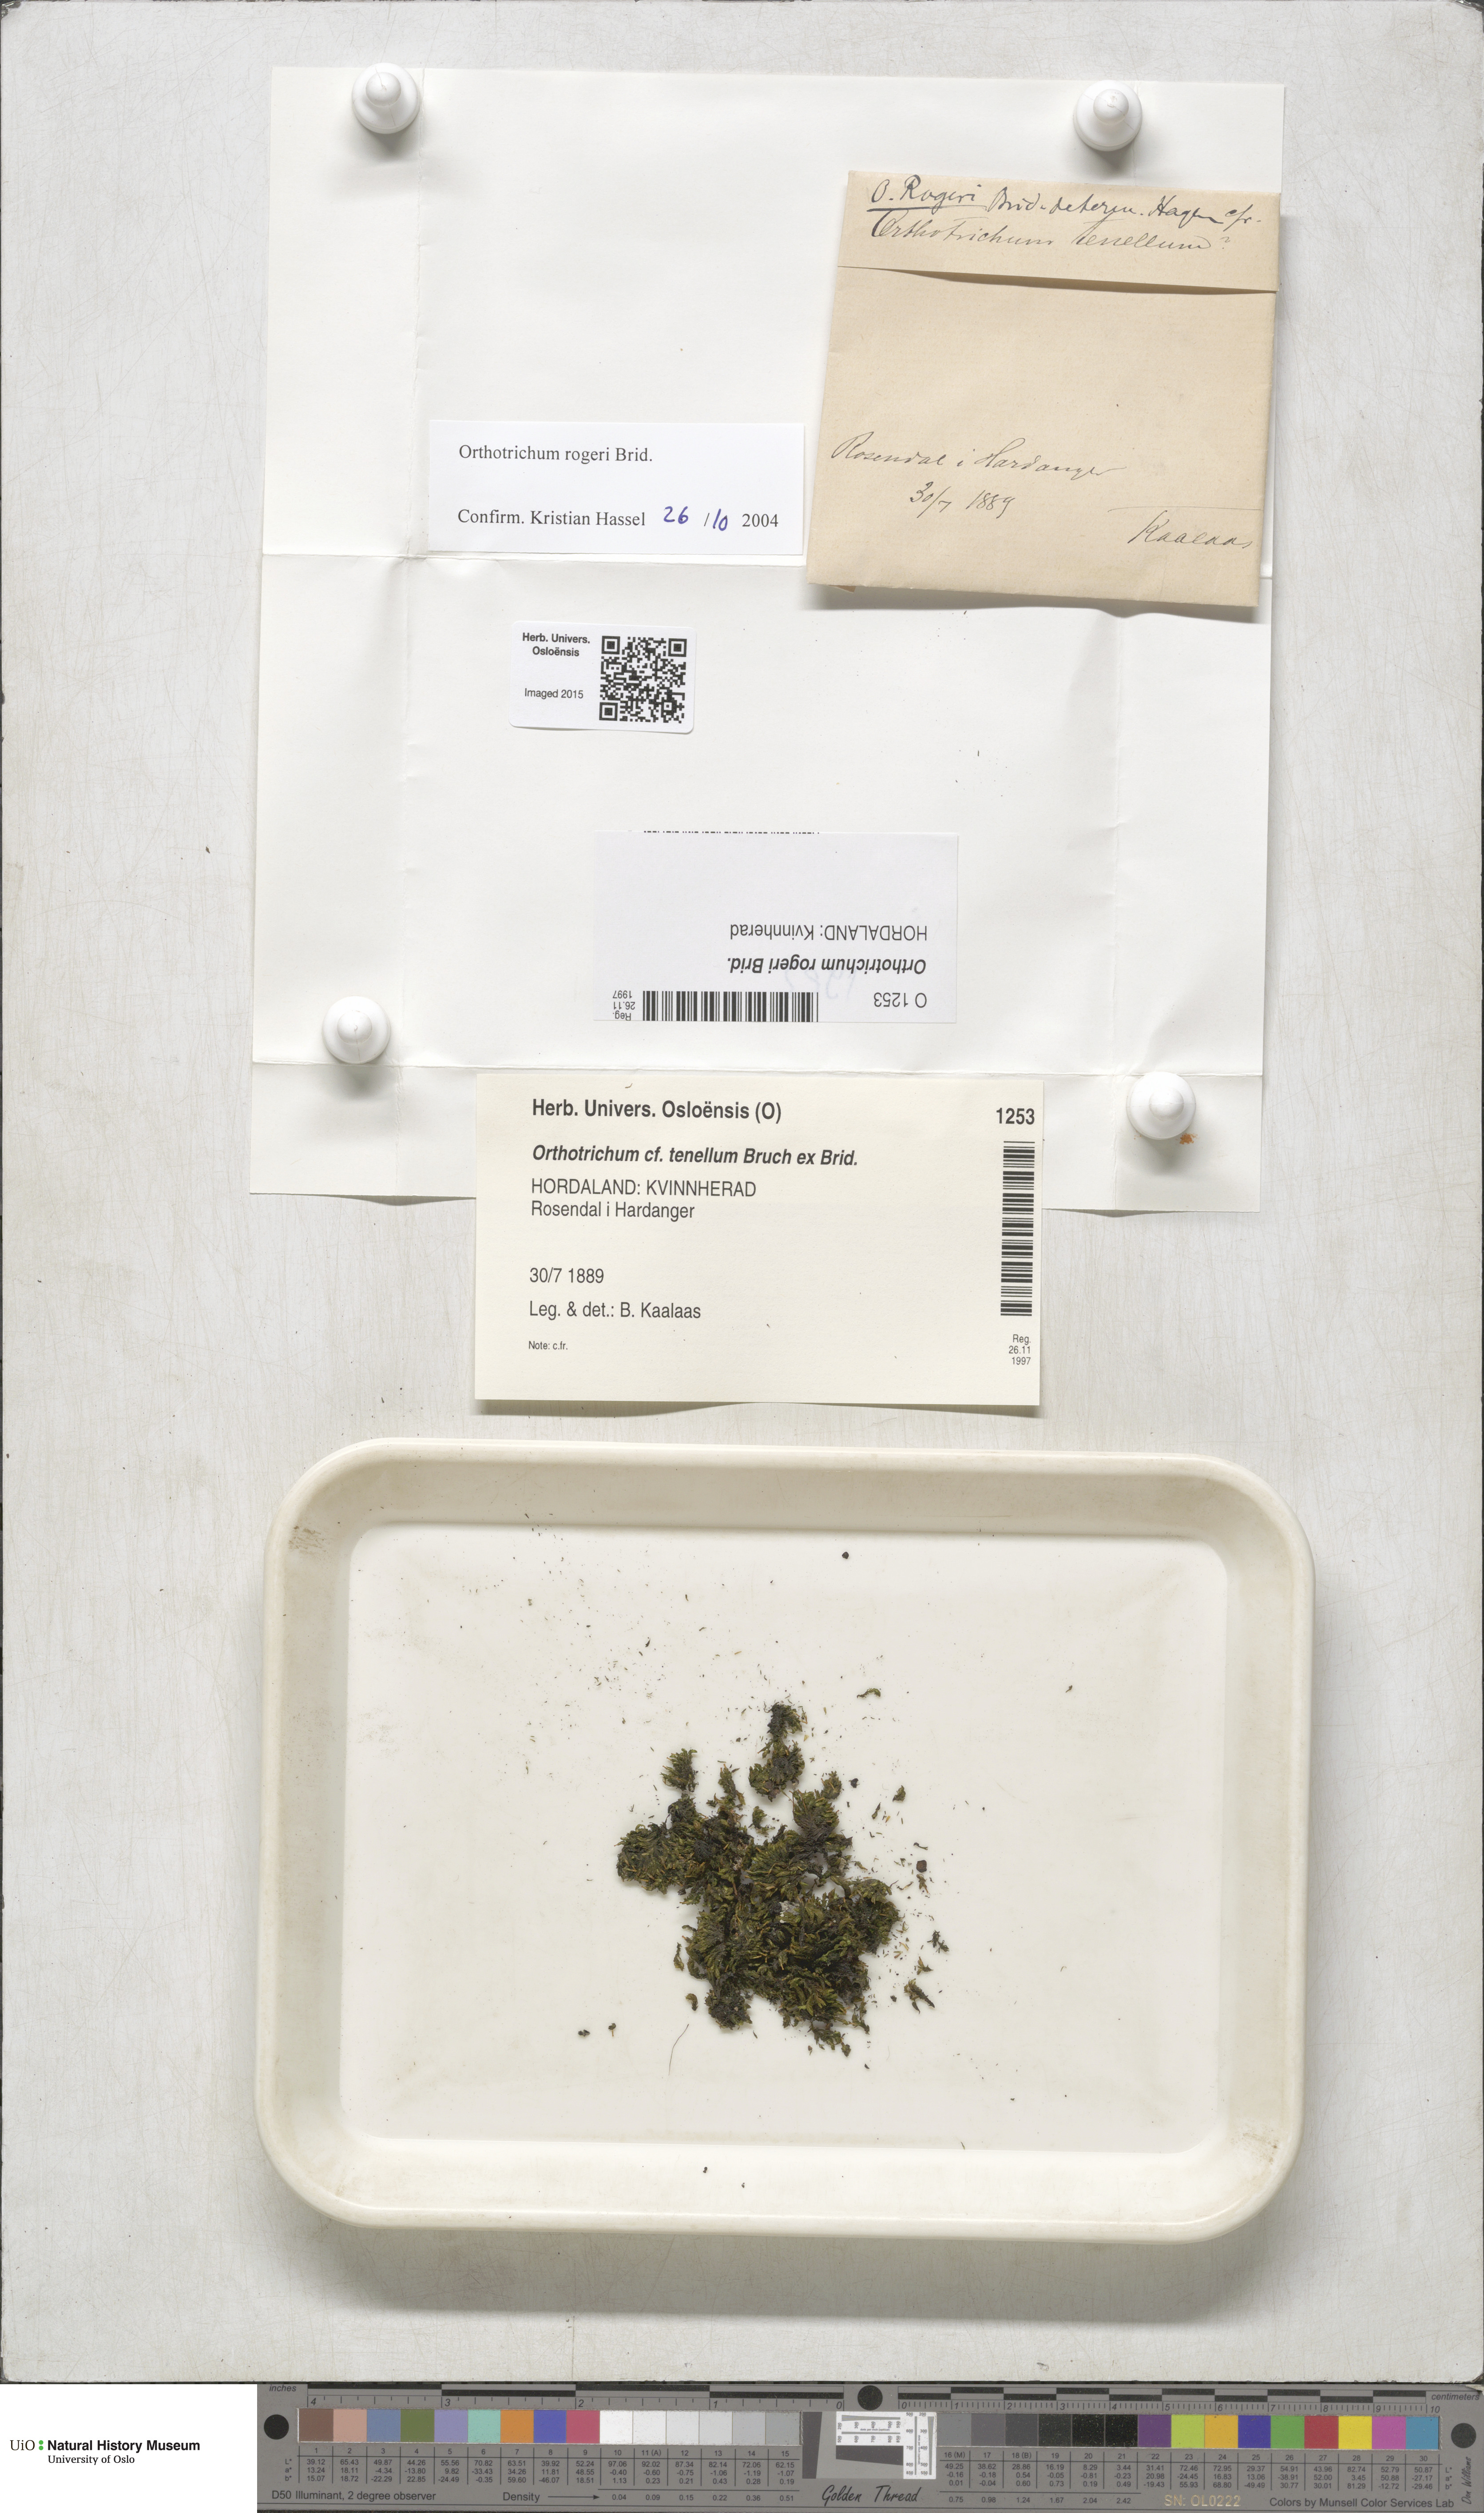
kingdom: Plantae
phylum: Bryophyta
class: Bryopsida
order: Orthotrichales
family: Orthotrichaceae
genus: Orthotrichum
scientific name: Orthotrichum rogeri
